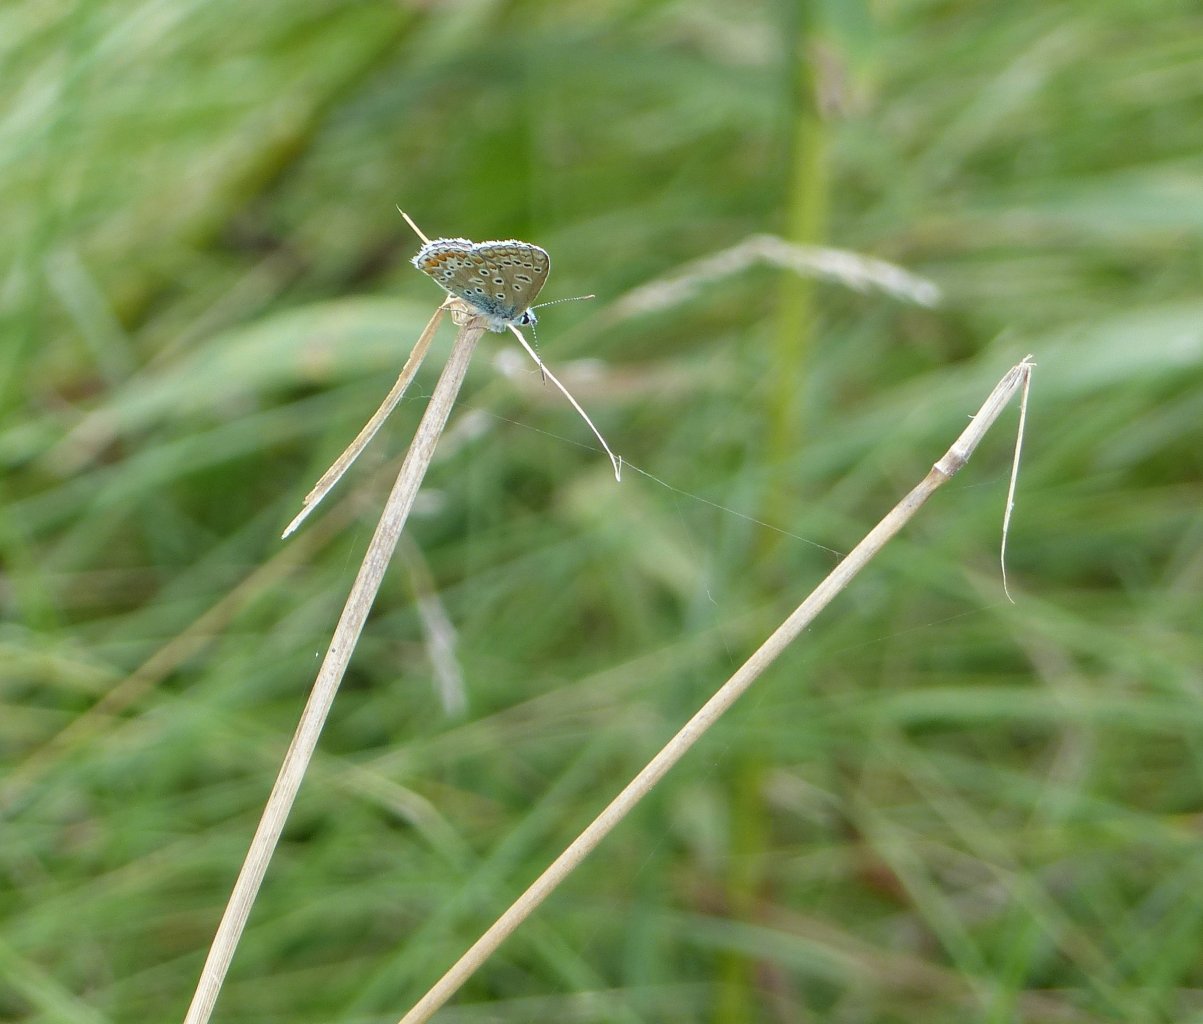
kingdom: Animalia
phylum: Arthropoda
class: Insecta
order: Lepidoptera
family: Lycaenidae
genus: Polyommatus
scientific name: Polyommatus icarus
